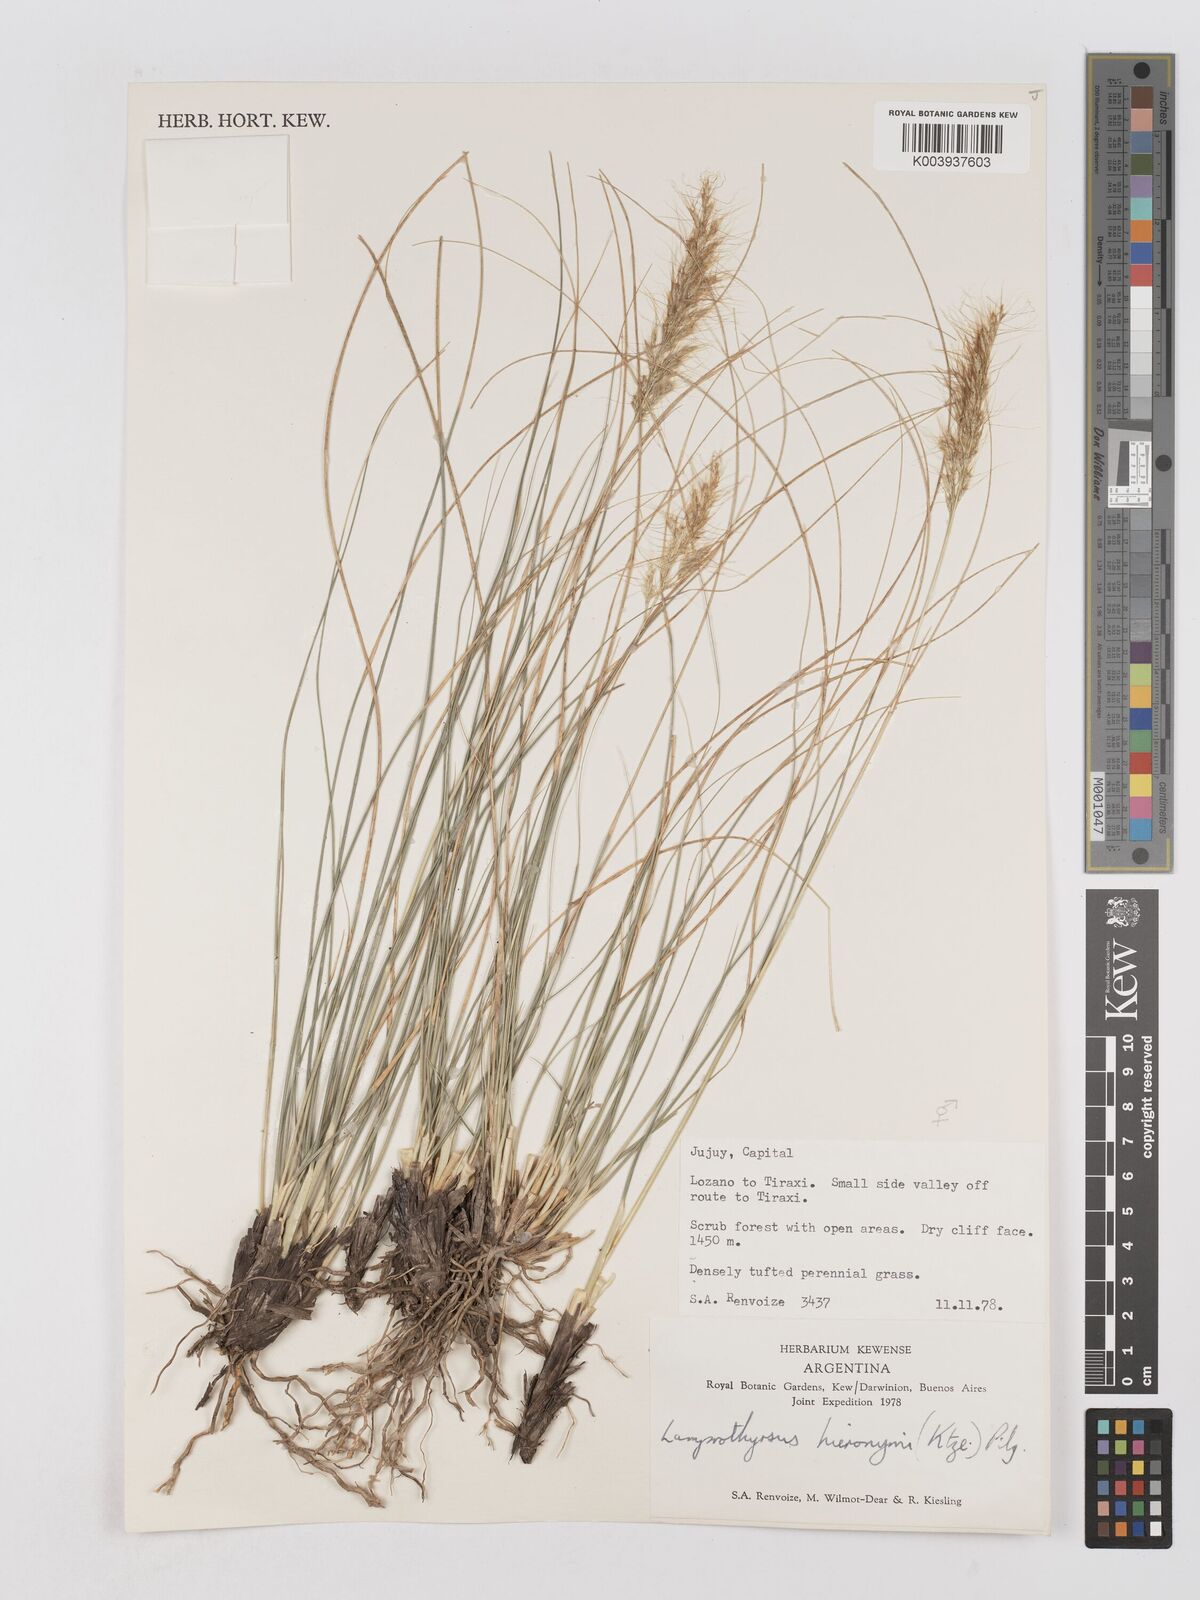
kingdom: Plantae
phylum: Tracheophyta
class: Liliopsida
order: Poales
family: Poaceae
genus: Cortaderia
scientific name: Cortaderia hieronymi
